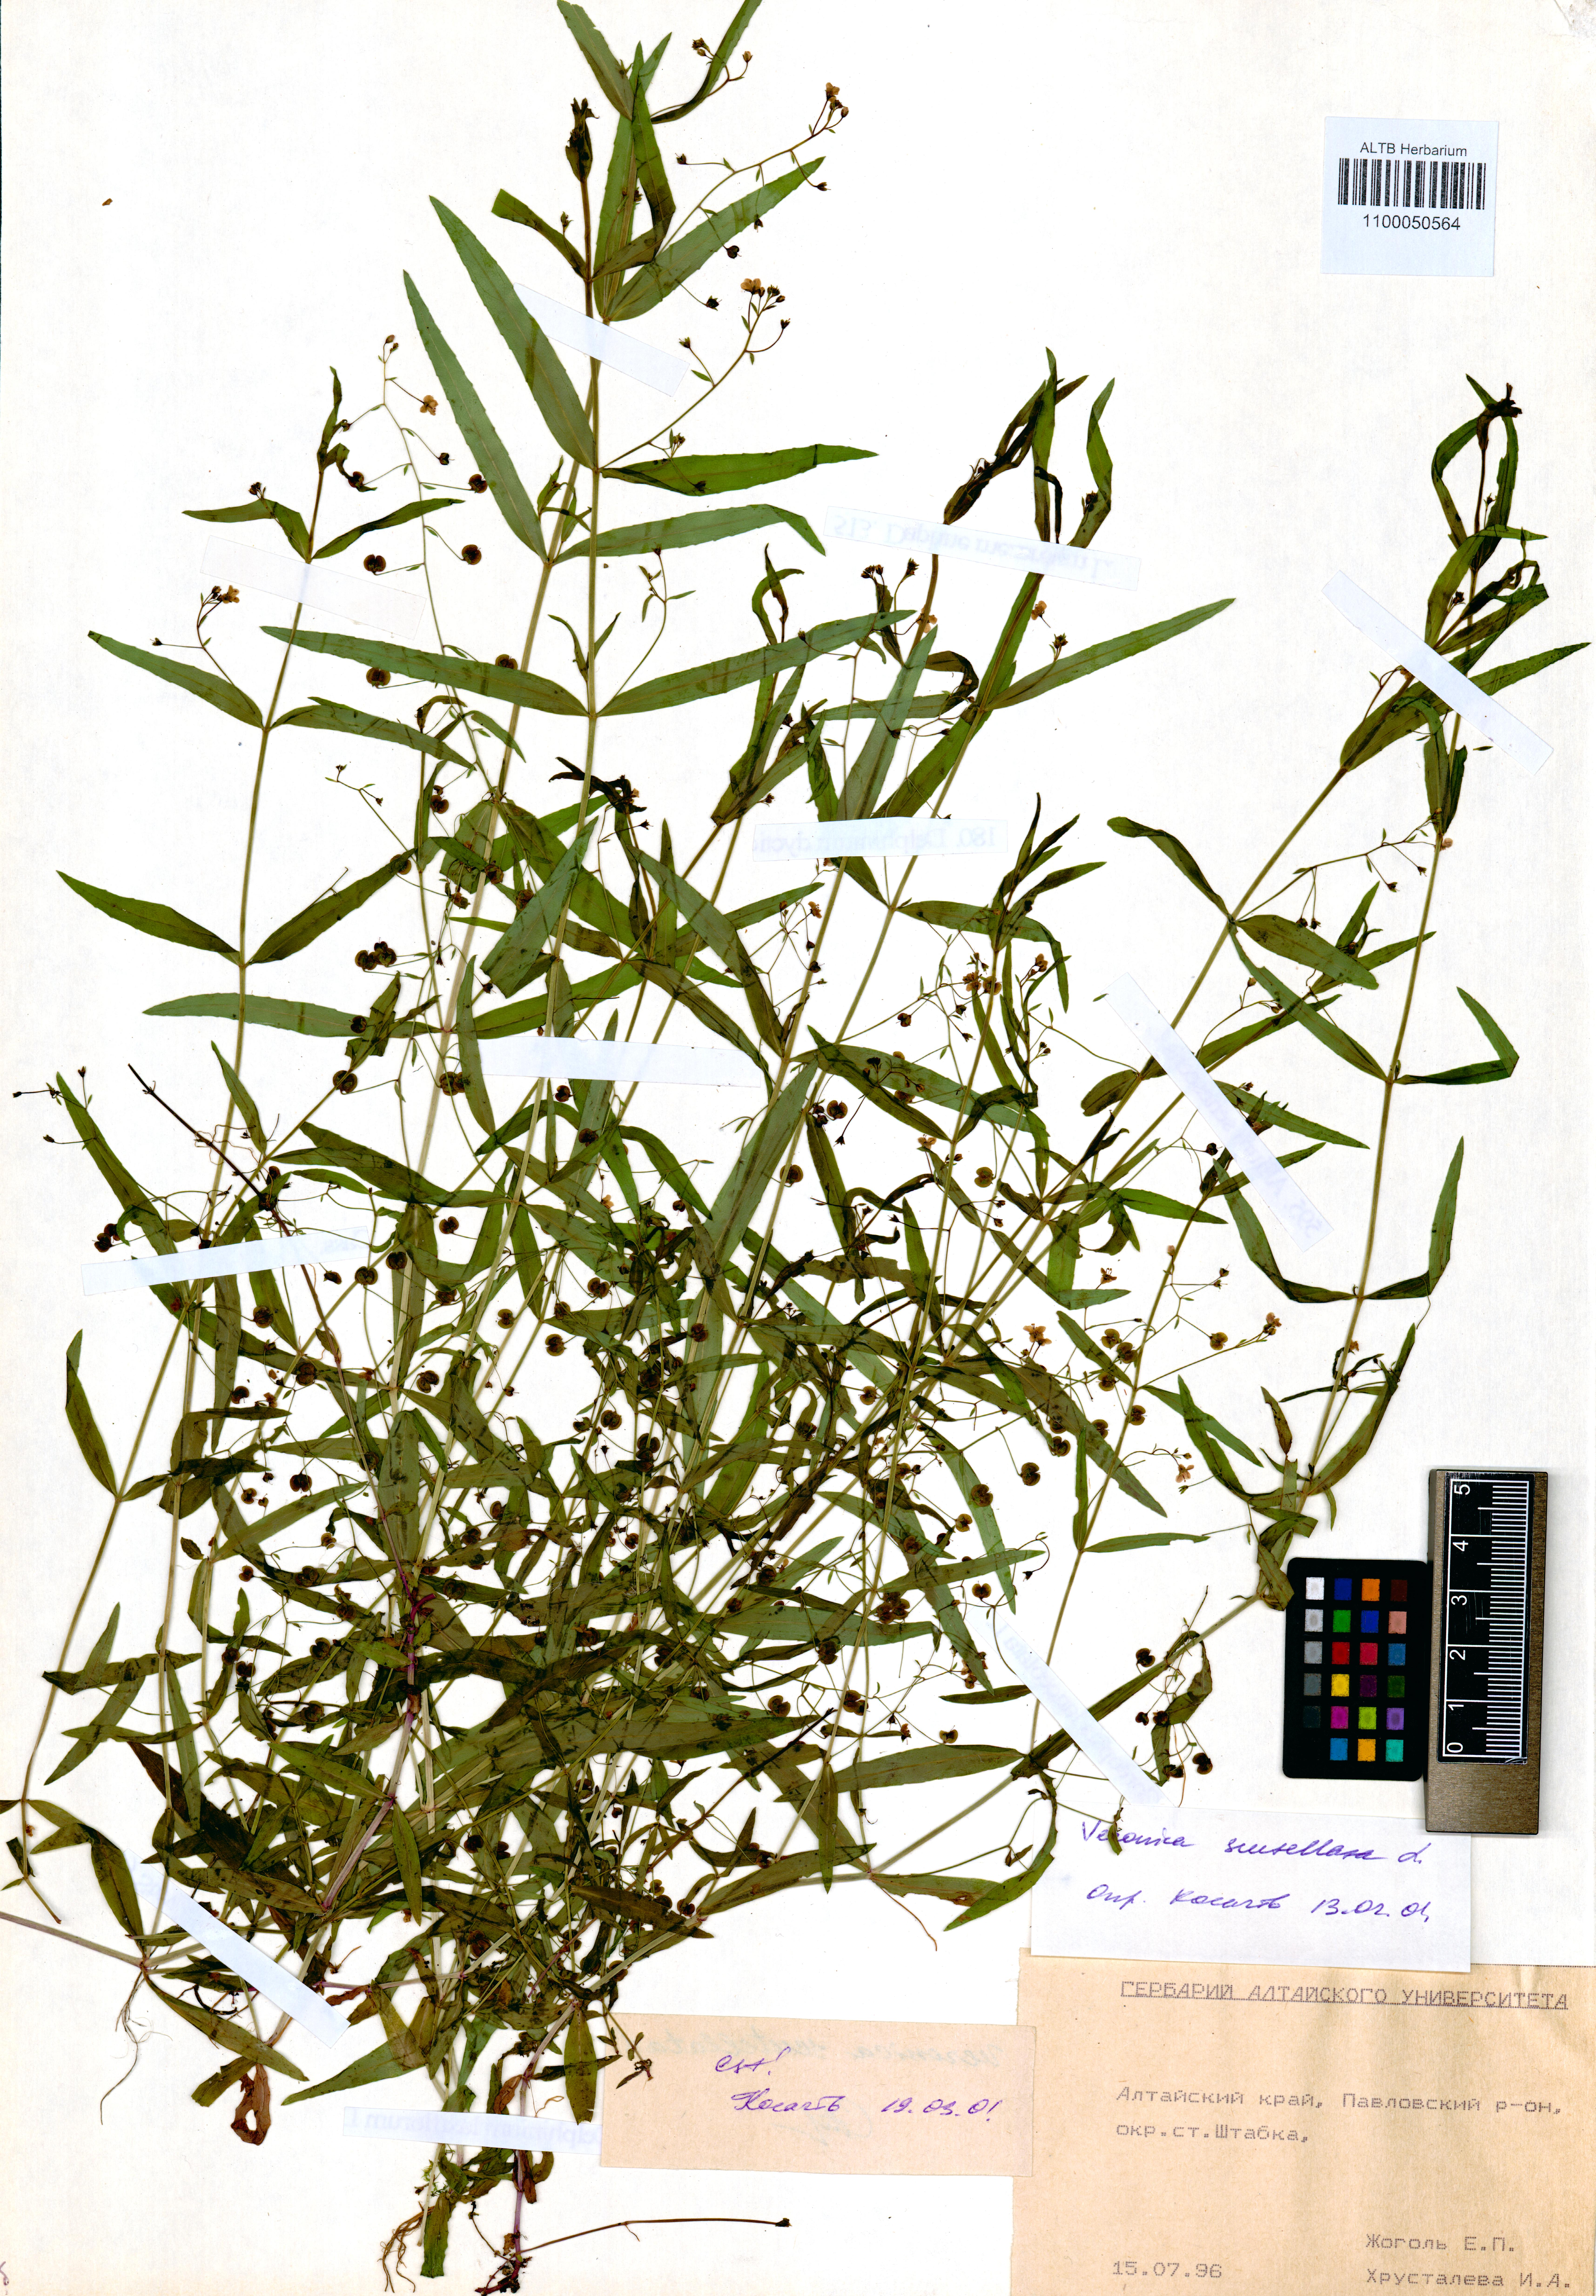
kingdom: Plantae
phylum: Tracheophyta
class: Magnoliopsida
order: Lamiales
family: Plantaginaceae
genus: Veronica
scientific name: Veronica scutellata
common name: Marsh speedwell
